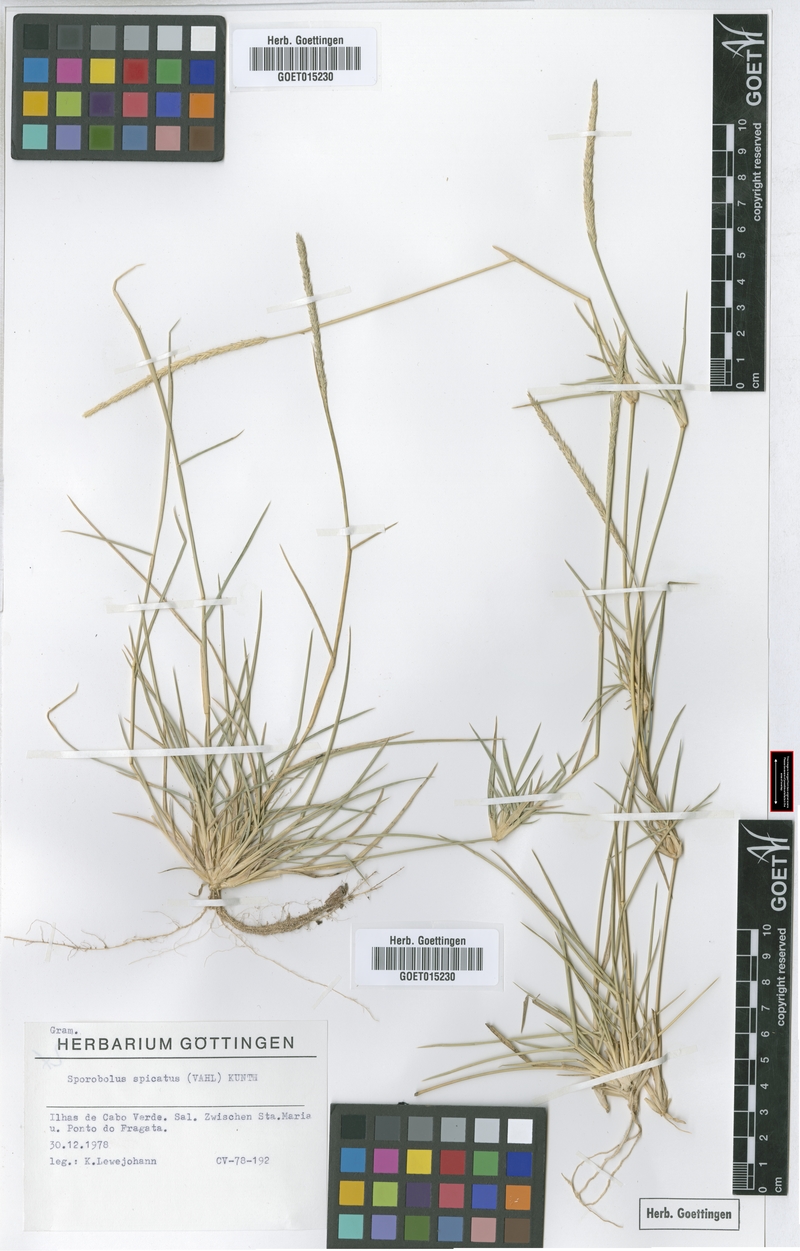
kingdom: Plantae
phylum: Tracheophyta
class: Liliopsida
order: Poales
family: Poaceae
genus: Sporobolus
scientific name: Sporobolus spicatus
